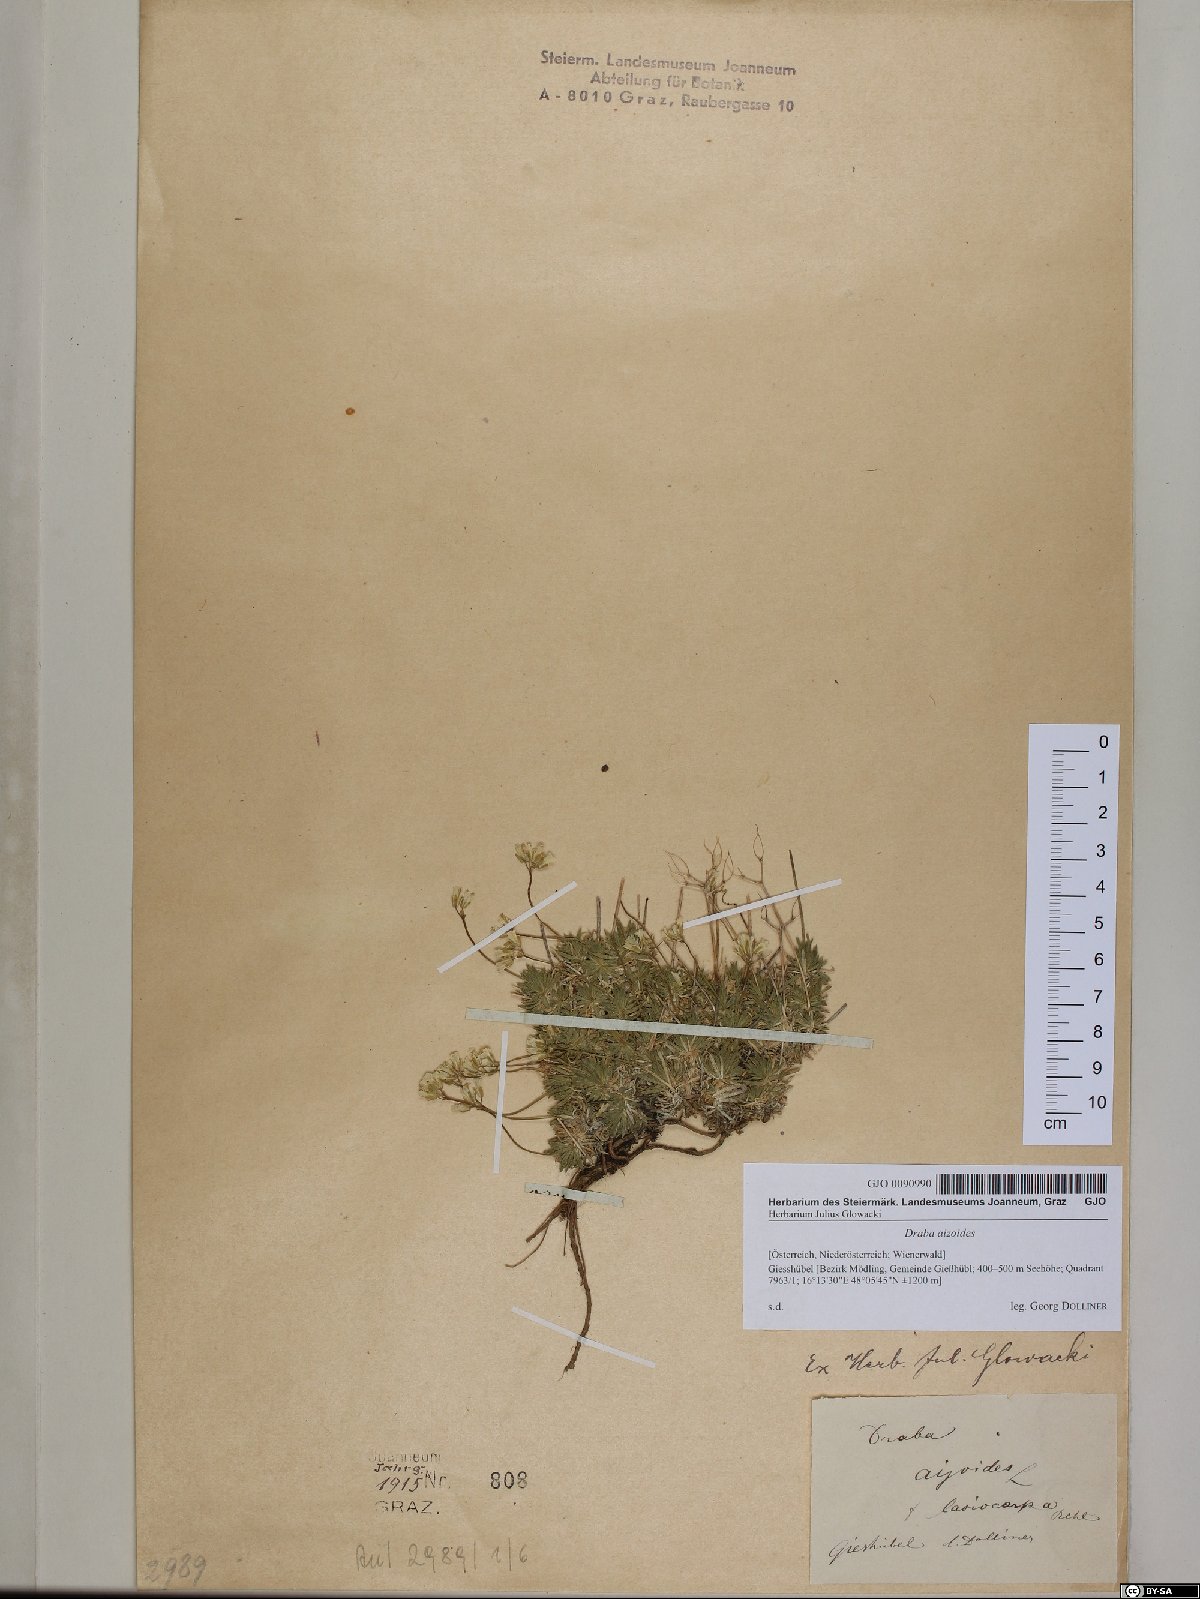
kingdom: Plantae
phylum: Tracheophyta
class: Magnoliopsida
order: Brassicales
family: Brassicaceae
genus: Draba
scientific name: Draba aizoides
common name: Yellow whitlowgrass
